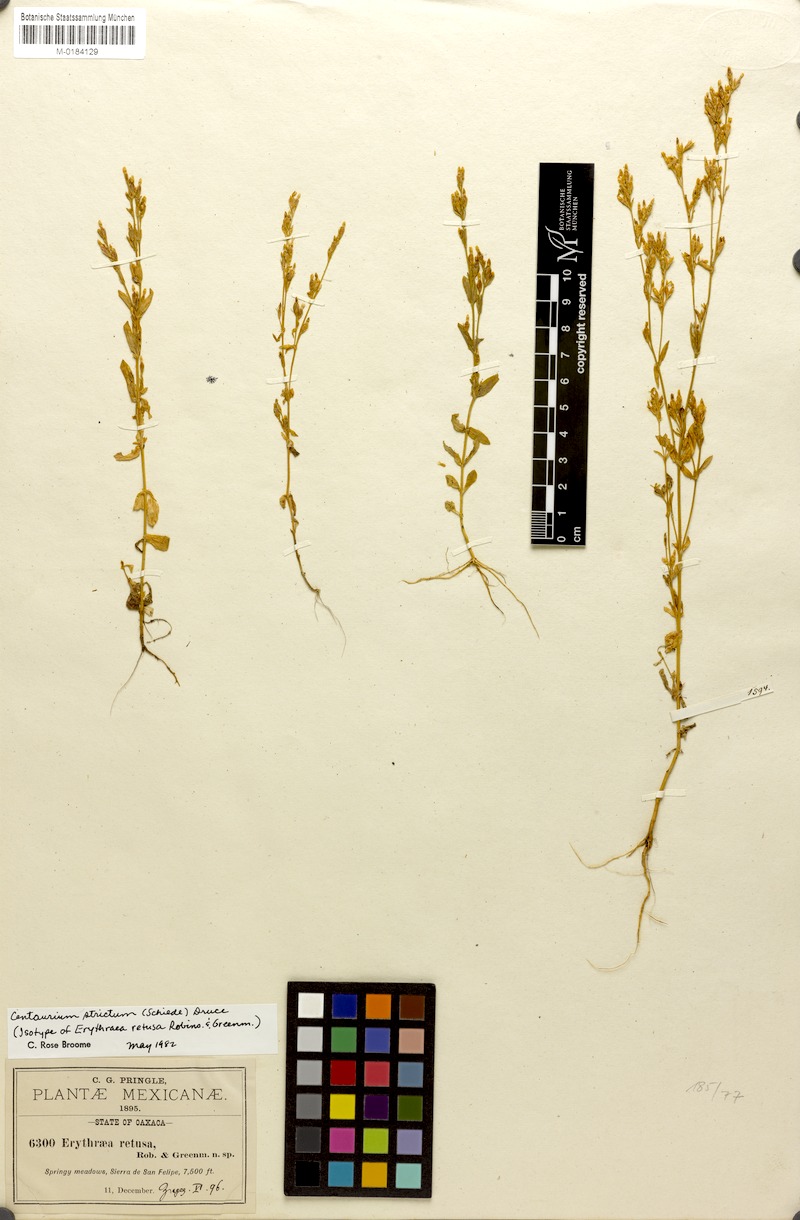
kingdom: Plantae
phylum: Tracheophyta
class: Magnoliopsida
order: Gentianales
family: Gentianaceae
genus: Zeltnera
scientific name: Zeltnera stricta
